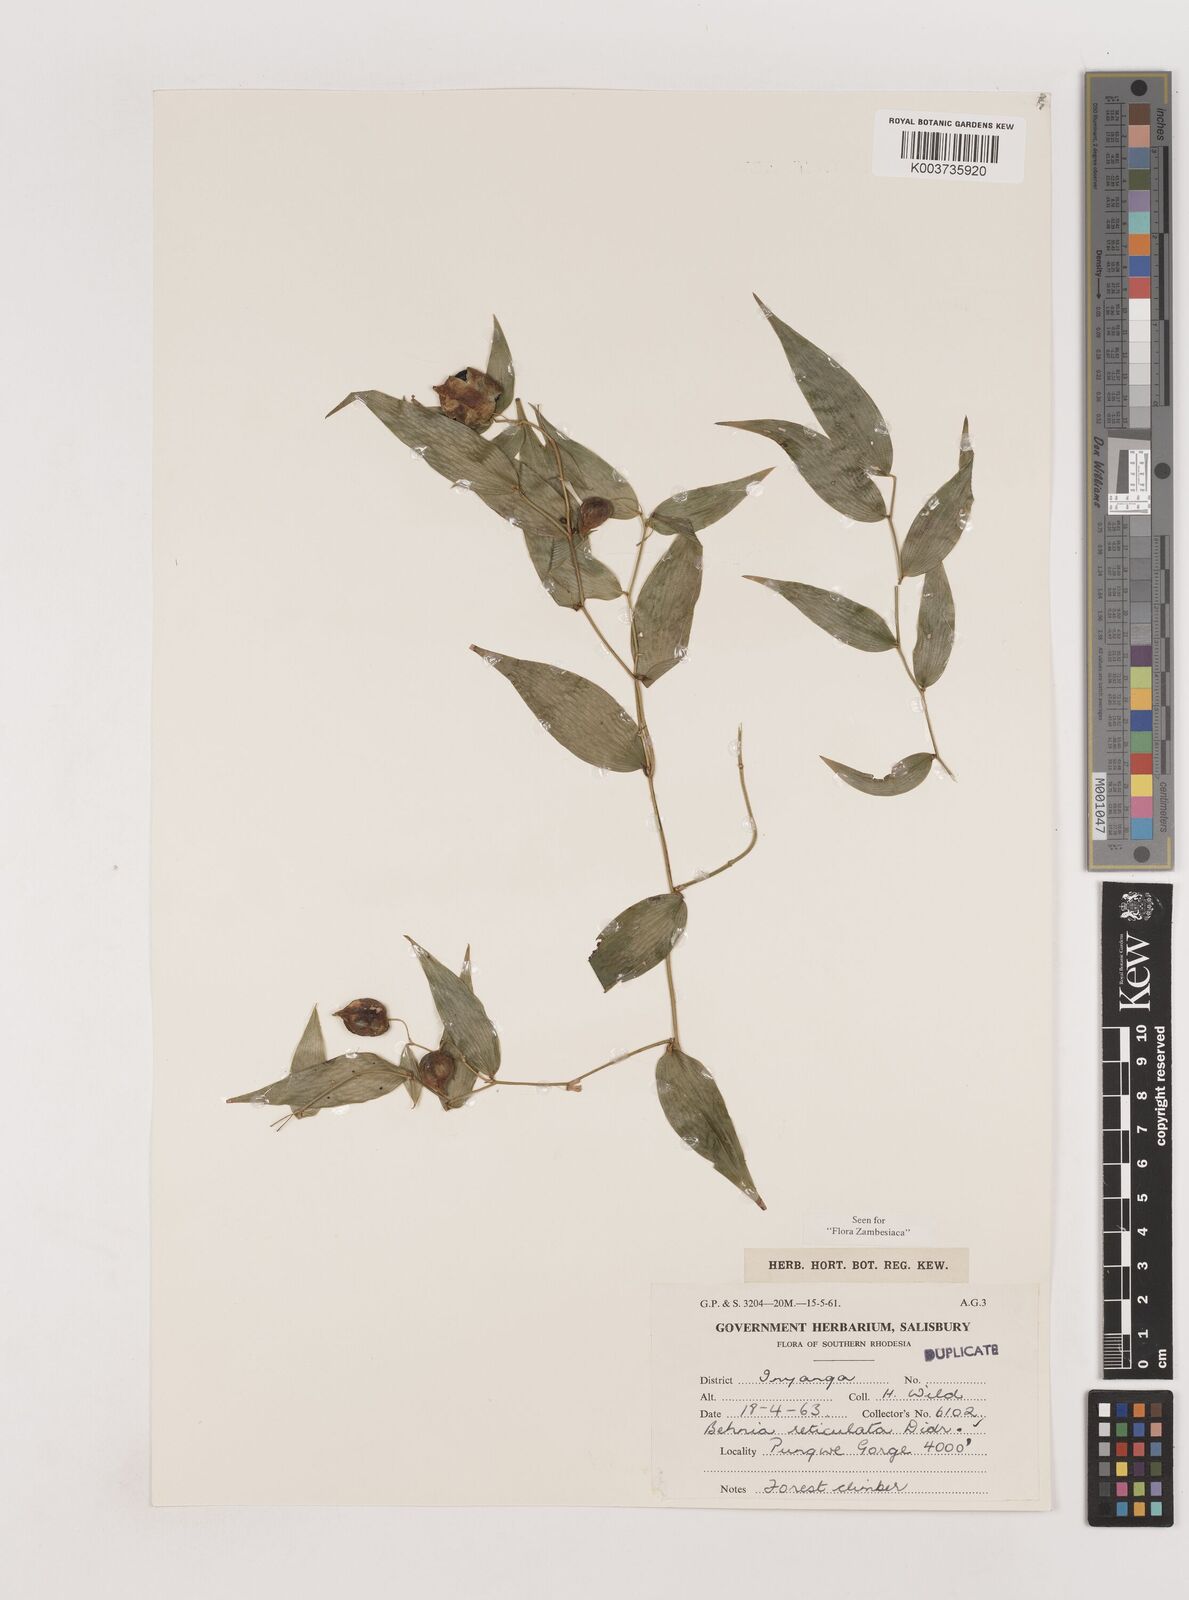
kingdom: Plantae
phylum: Tracheophyta
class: Liliopsida
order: Asparagales
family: Asparagaceae
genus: Behnia
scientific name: Behnia reticulata
